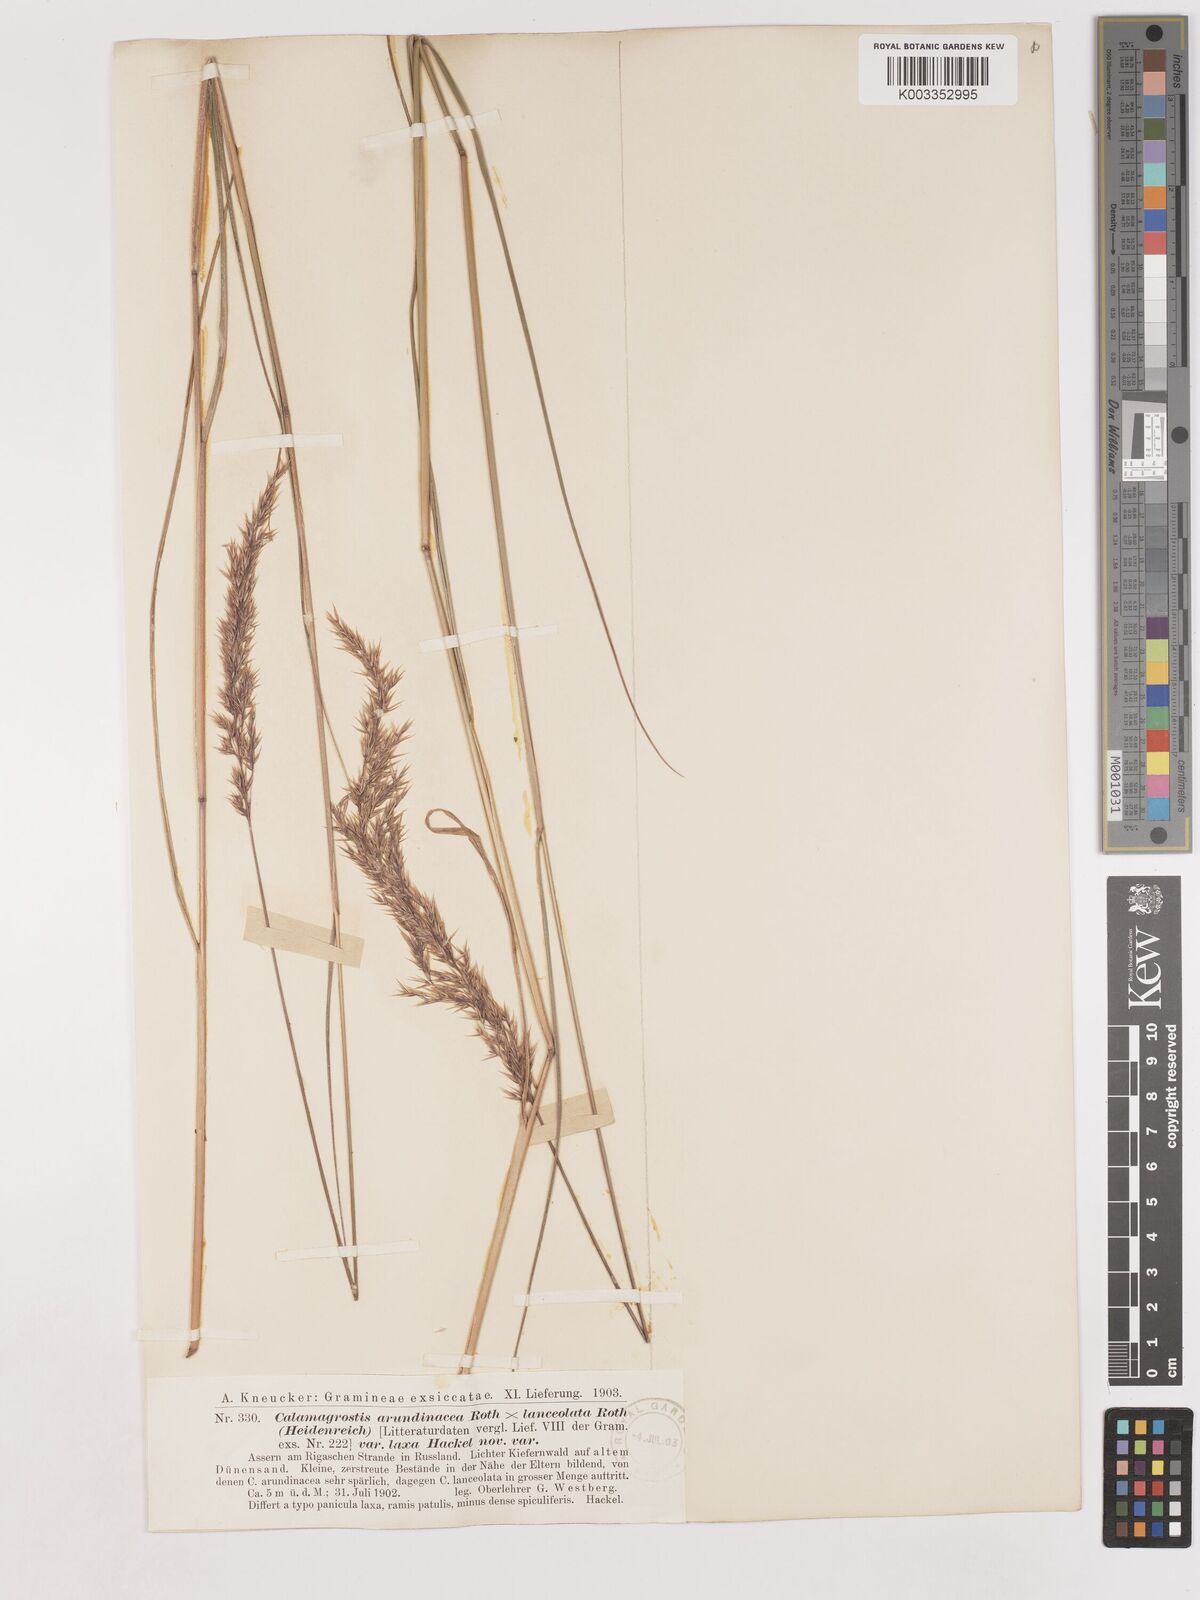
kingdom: Plantae
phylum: Tracheophyta
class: Liliopsida
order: Poales
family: Poaceae
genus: Calamagrostis
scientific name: Calamagrostis canescens
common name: Purple small-reed
